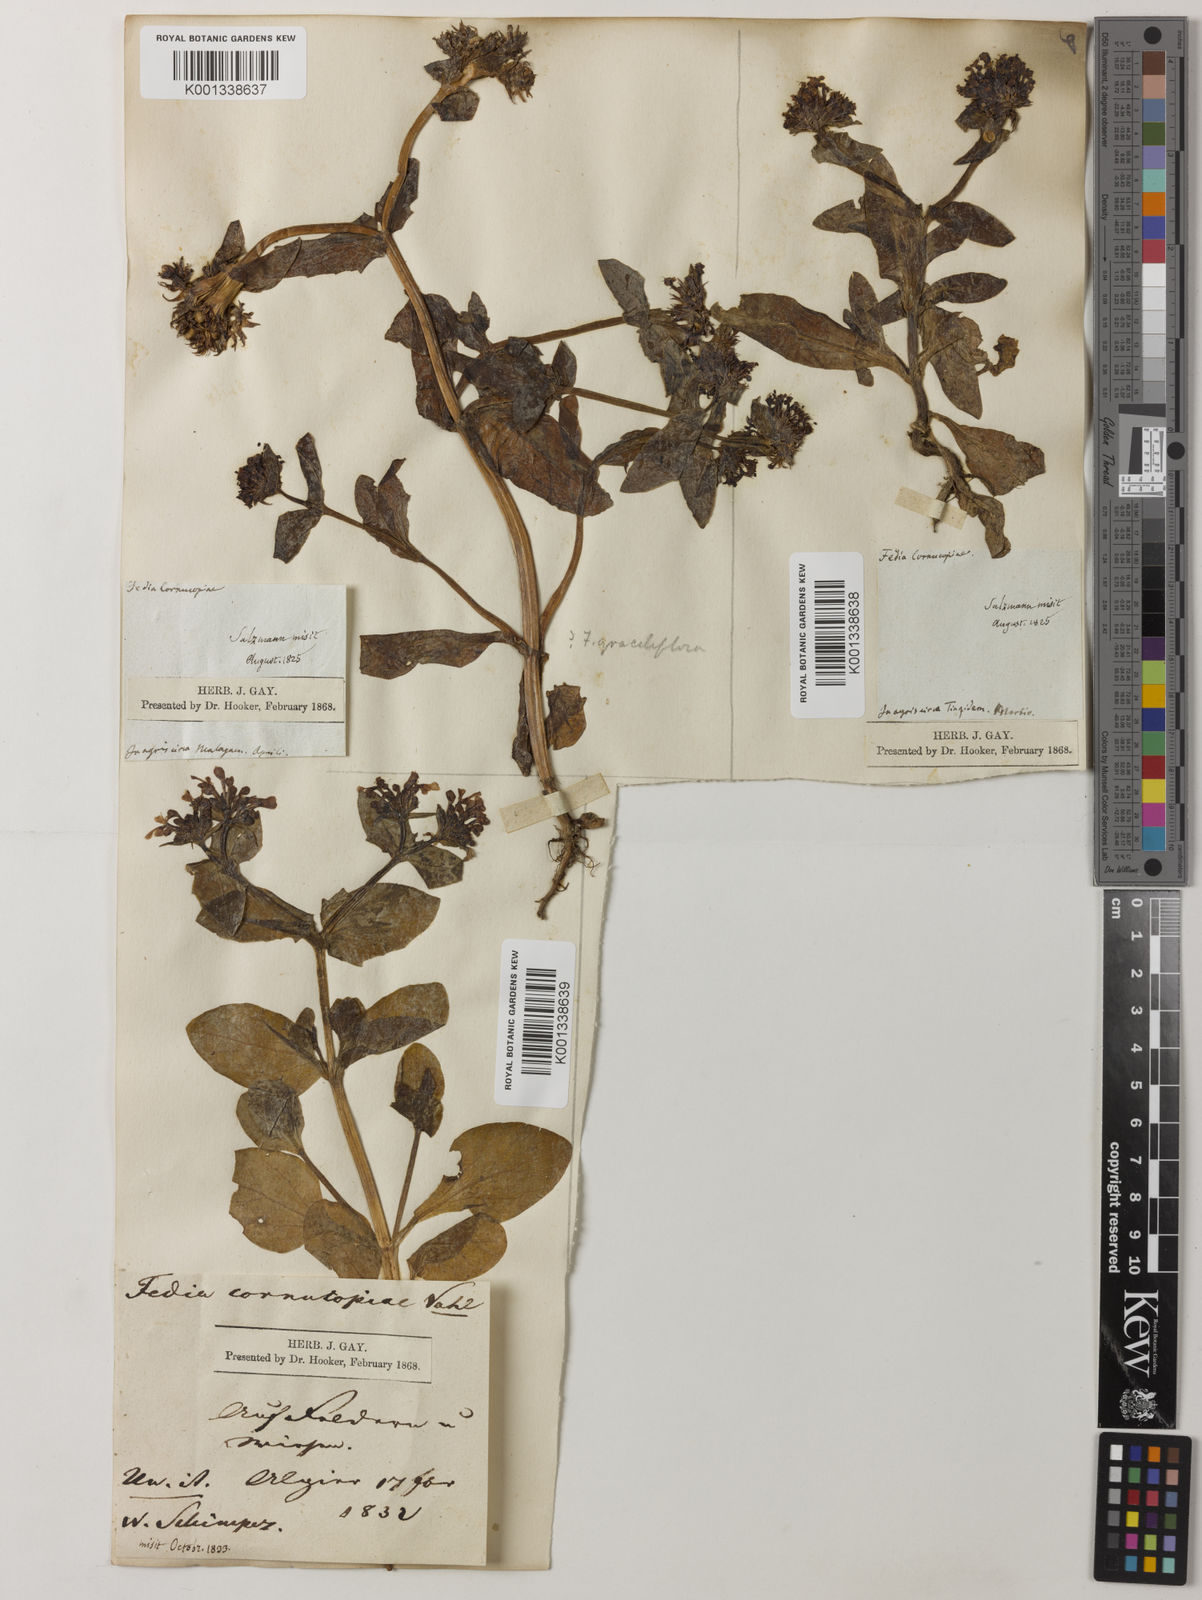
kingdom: Plantae
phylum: Tracheophyta
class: Magnoliopsida
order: Dipsacales
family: Caprifoliaceae
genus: Fedia
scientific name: Fedia cornucopiae
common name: Horn-of-plenty
